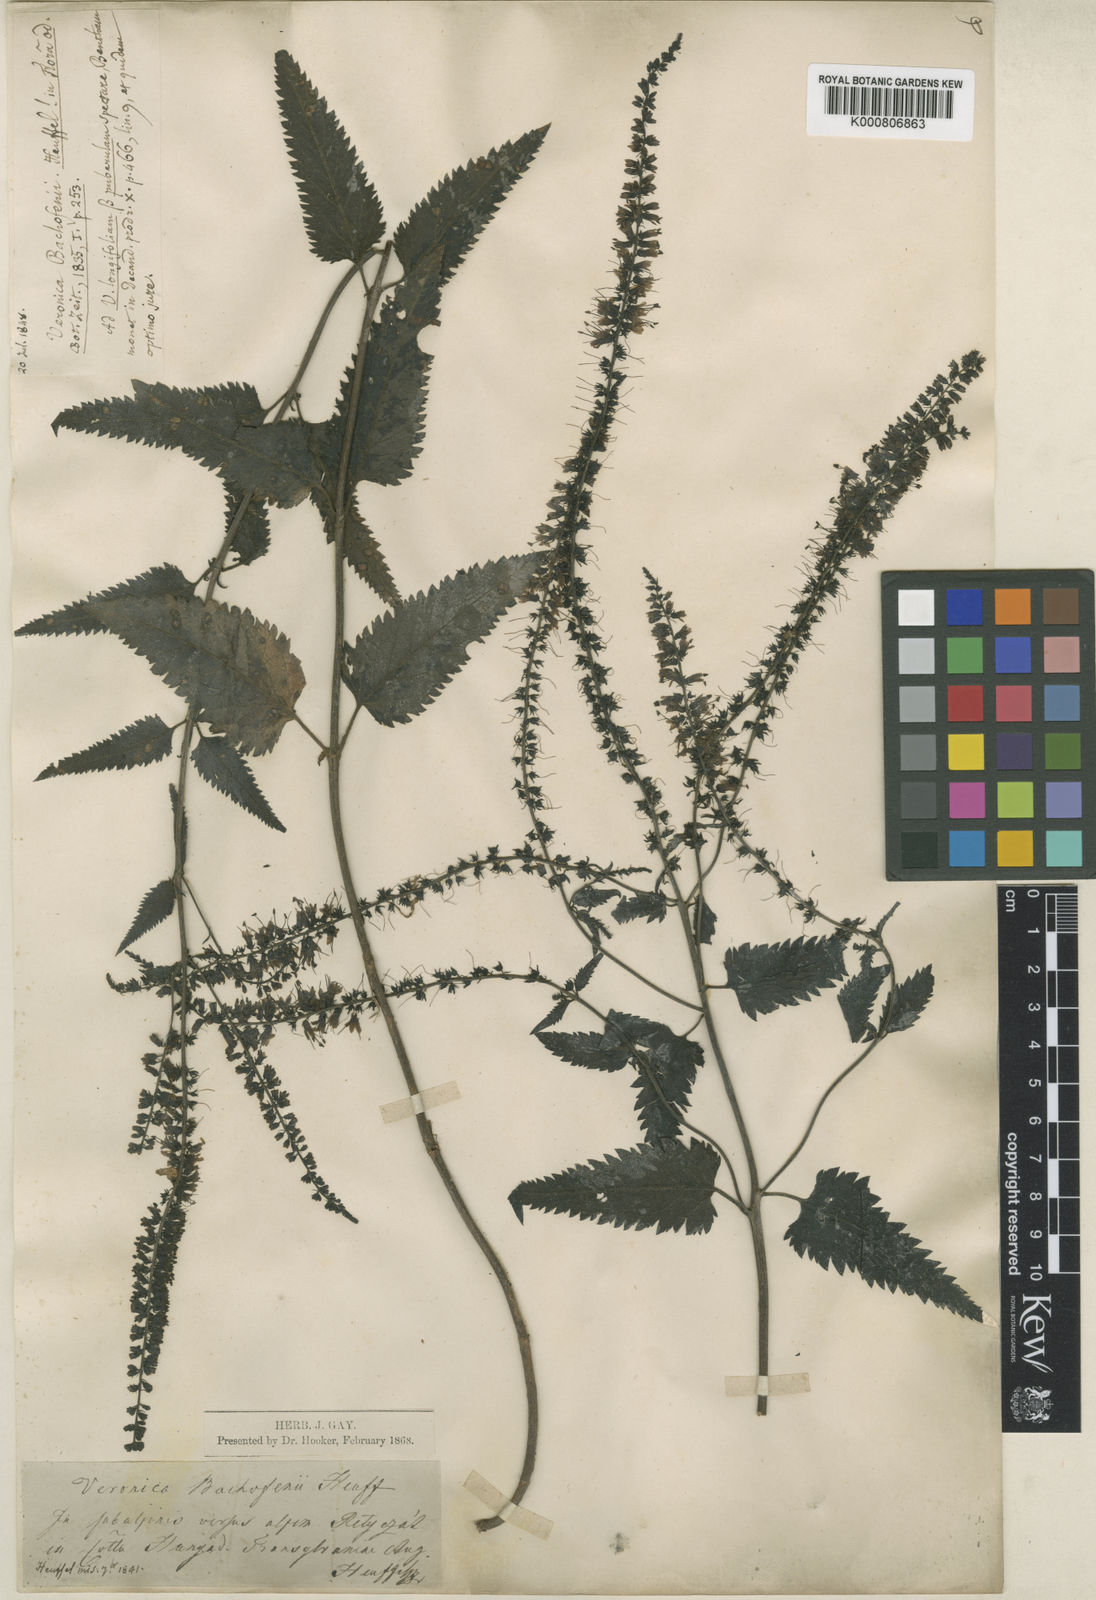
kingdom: Plantae
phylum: Tracheophyta
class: Magnoliopsida
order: Lamiales
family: Plantaginaceae
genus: Veronica
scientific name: Veronica bachofenii
